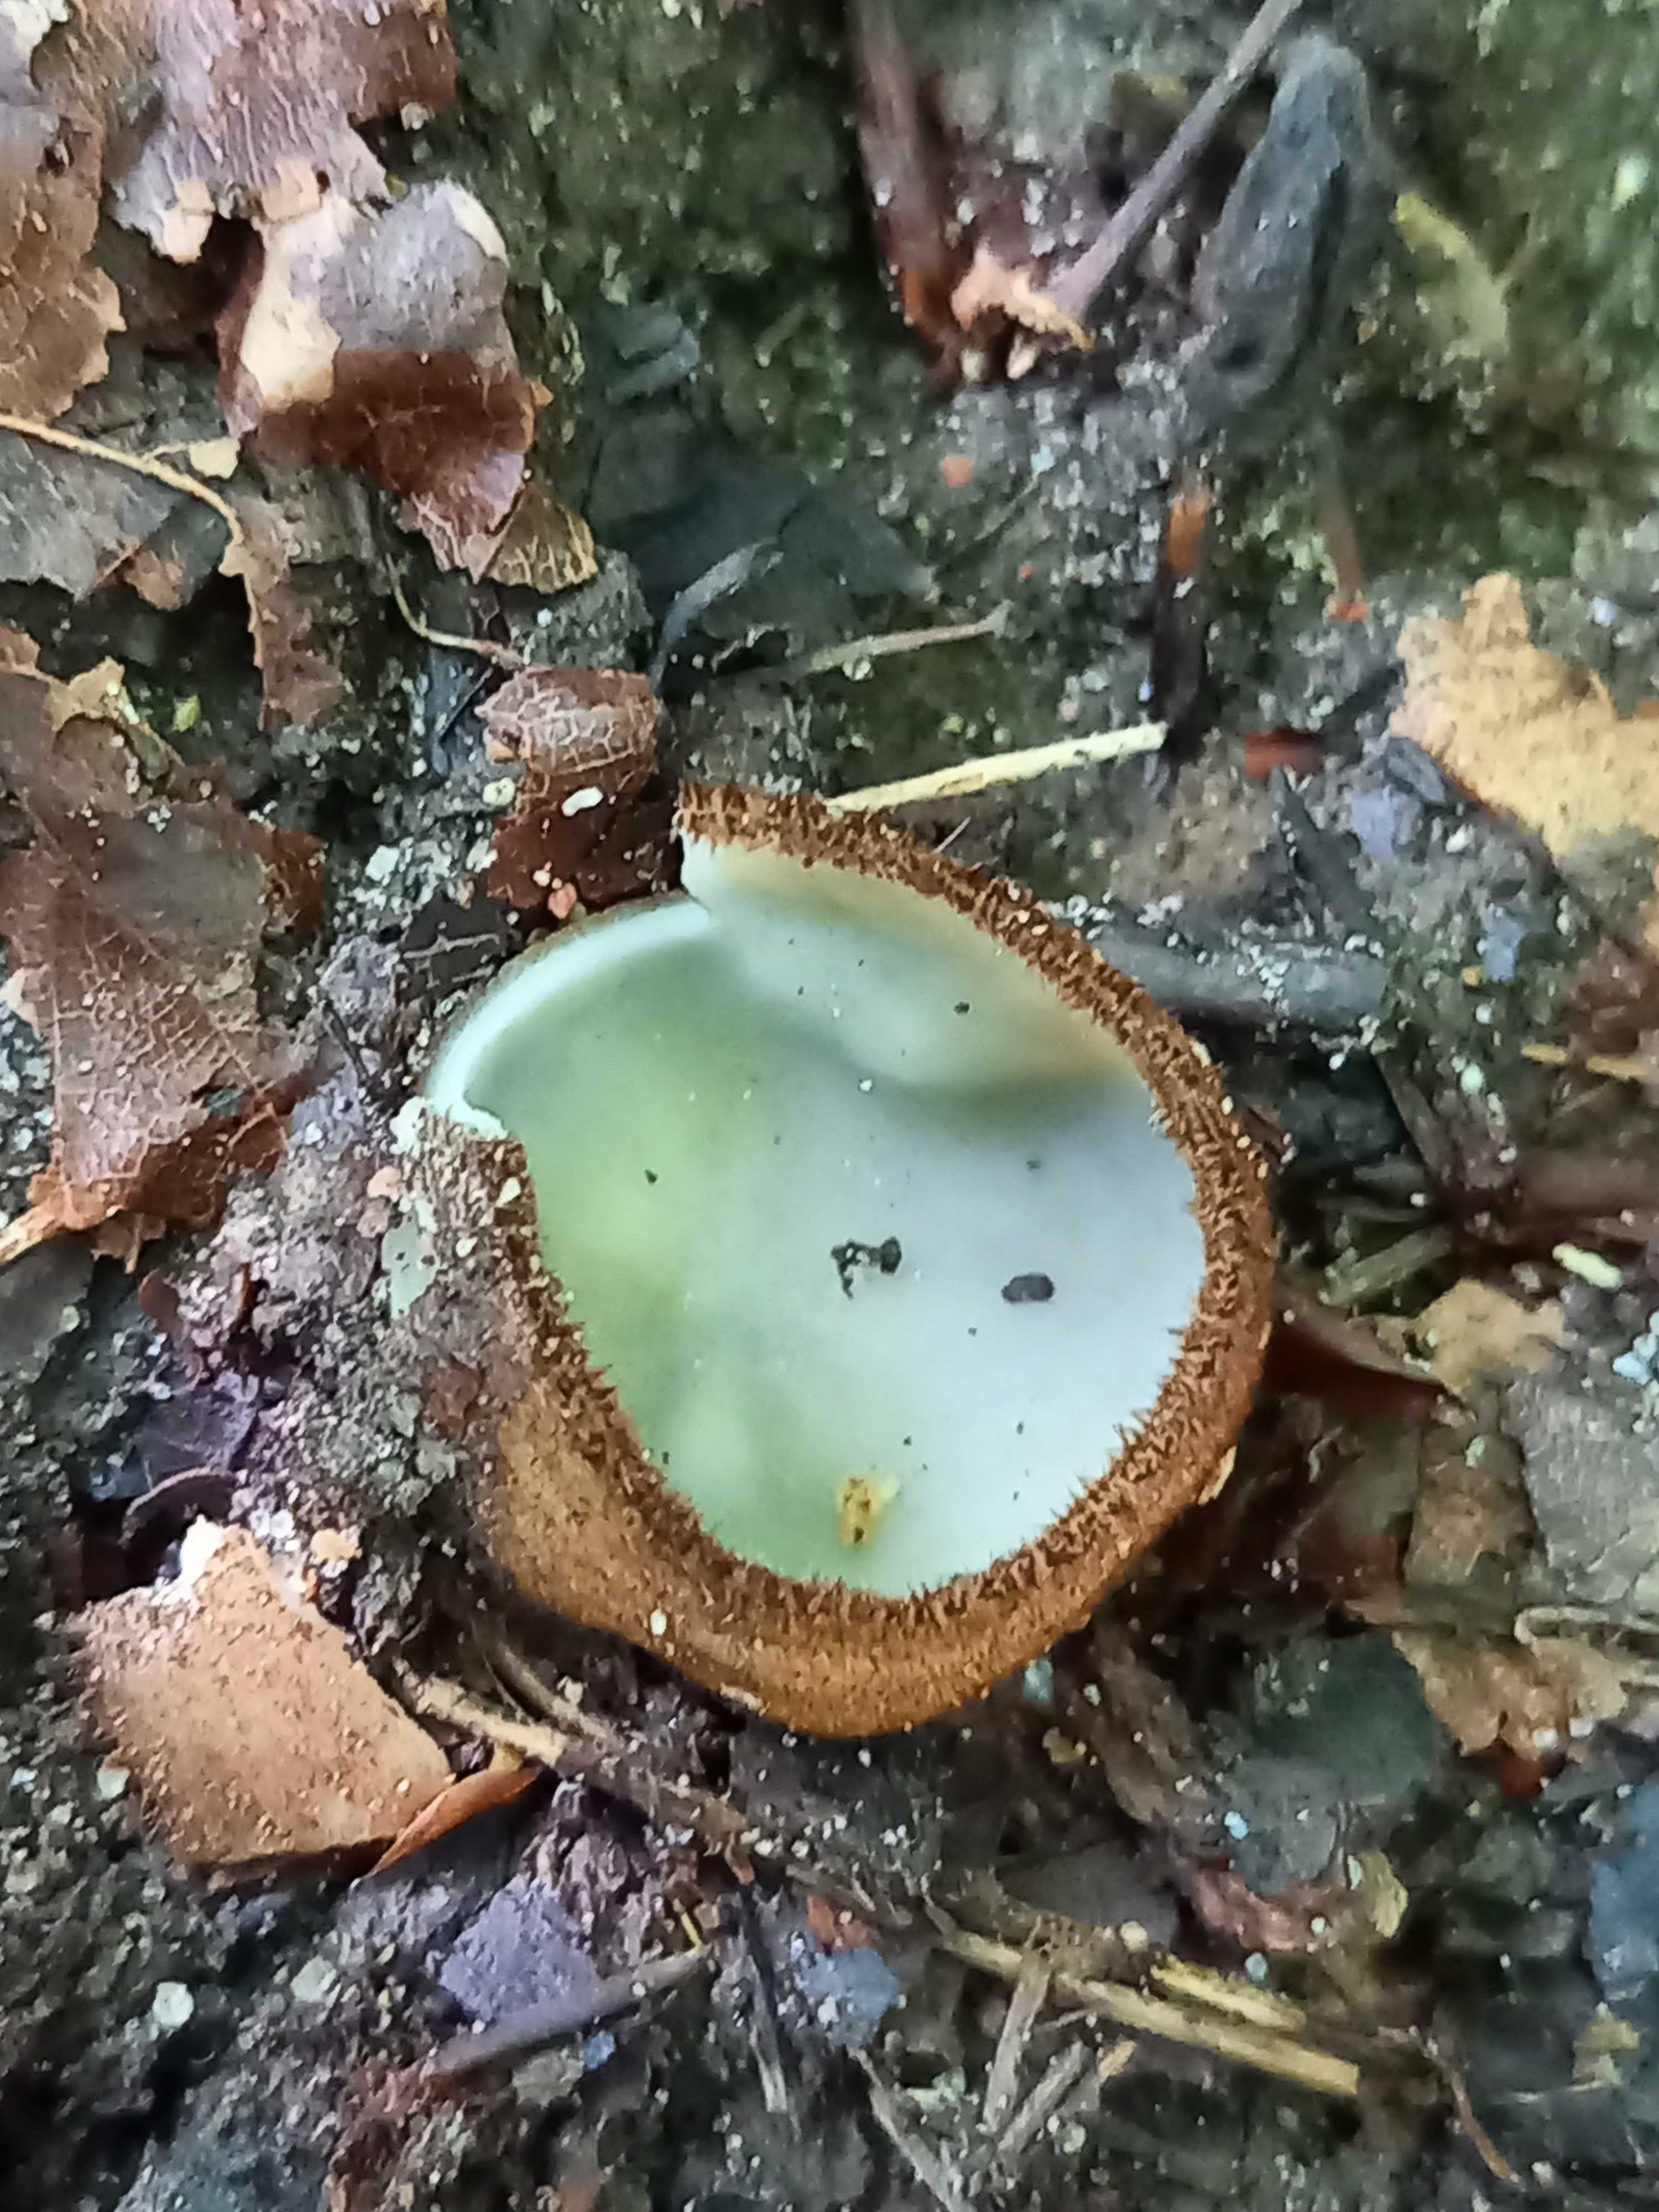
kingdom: Fungi
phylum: Ascomycota
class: Pezizomycetes
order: Pezizales
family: Pyronemataceae
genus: Humaria
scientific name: Humaria hemisphaerica
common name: halvkugleformet børstebæger
